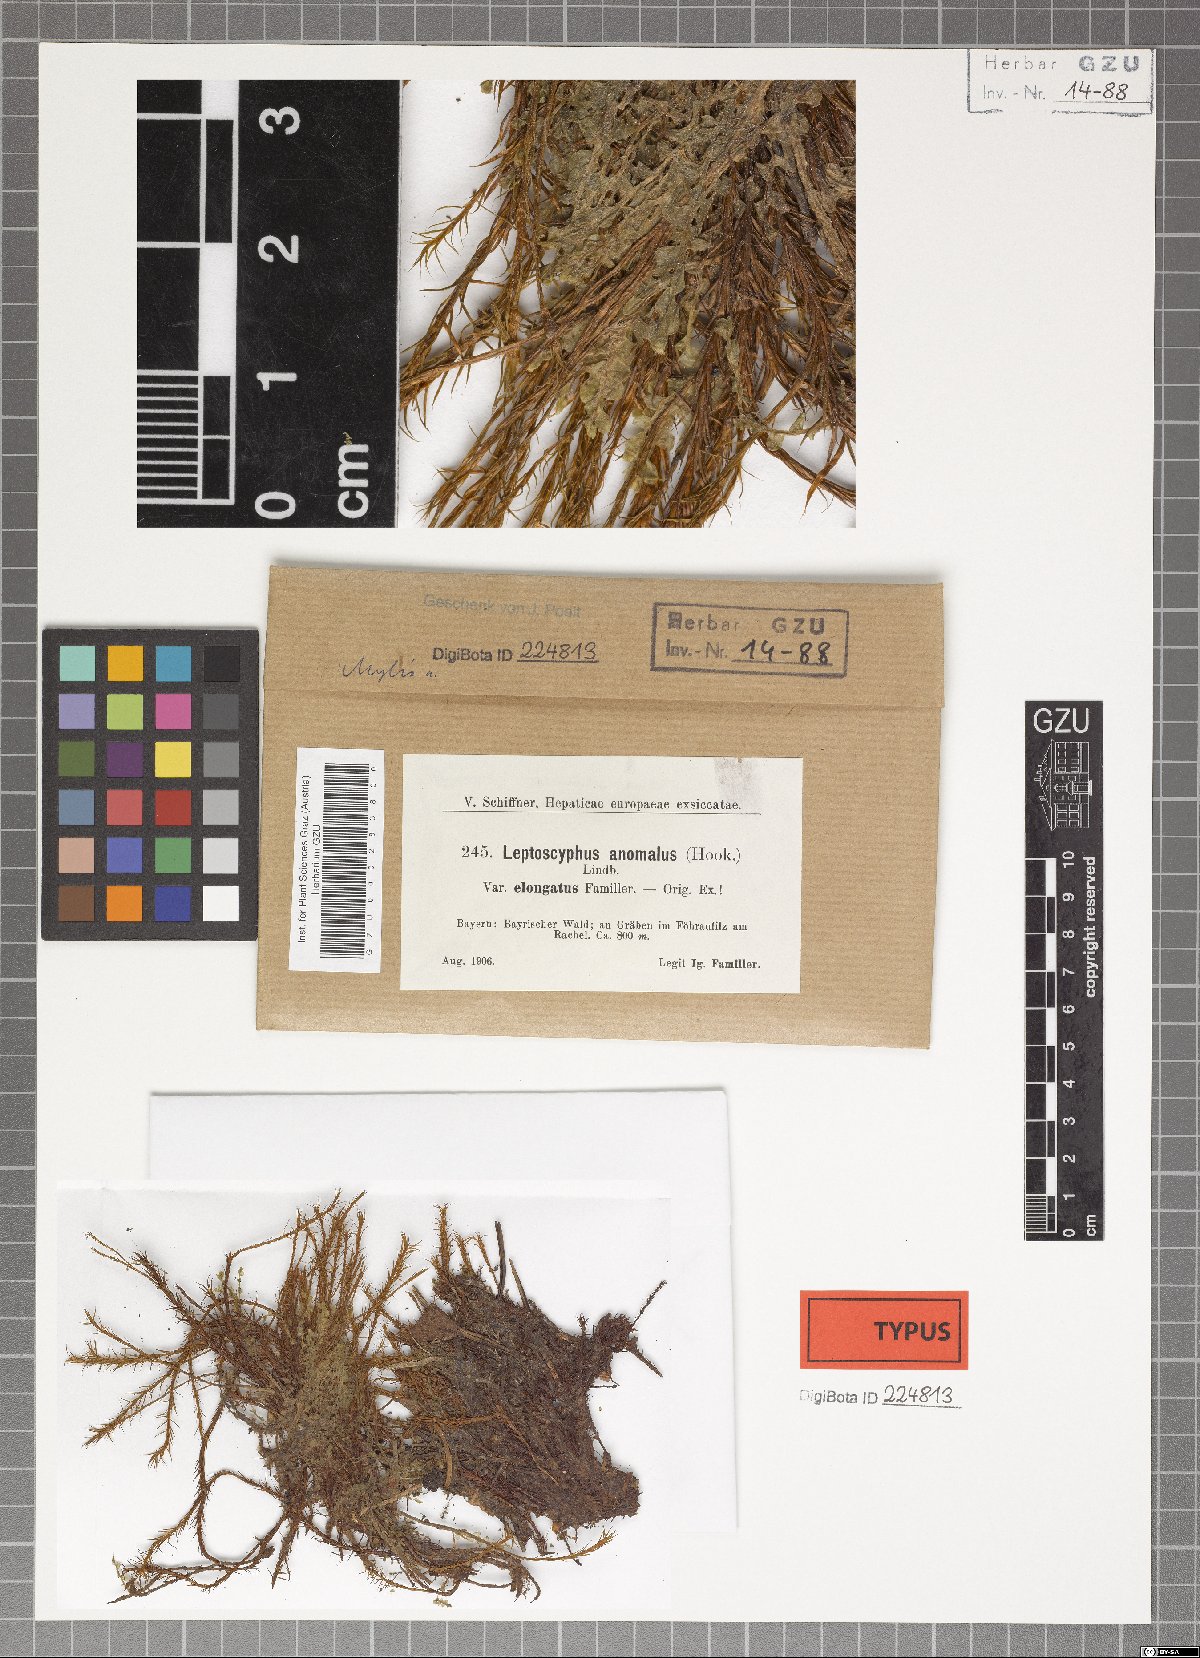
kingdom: Plantae
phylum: Marchantiophyta
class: Jungermanniopsida
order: Jungermanniales
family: Myliaceae
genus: Mylia
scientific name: Mylia anomala
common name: Anomalous flapwort
